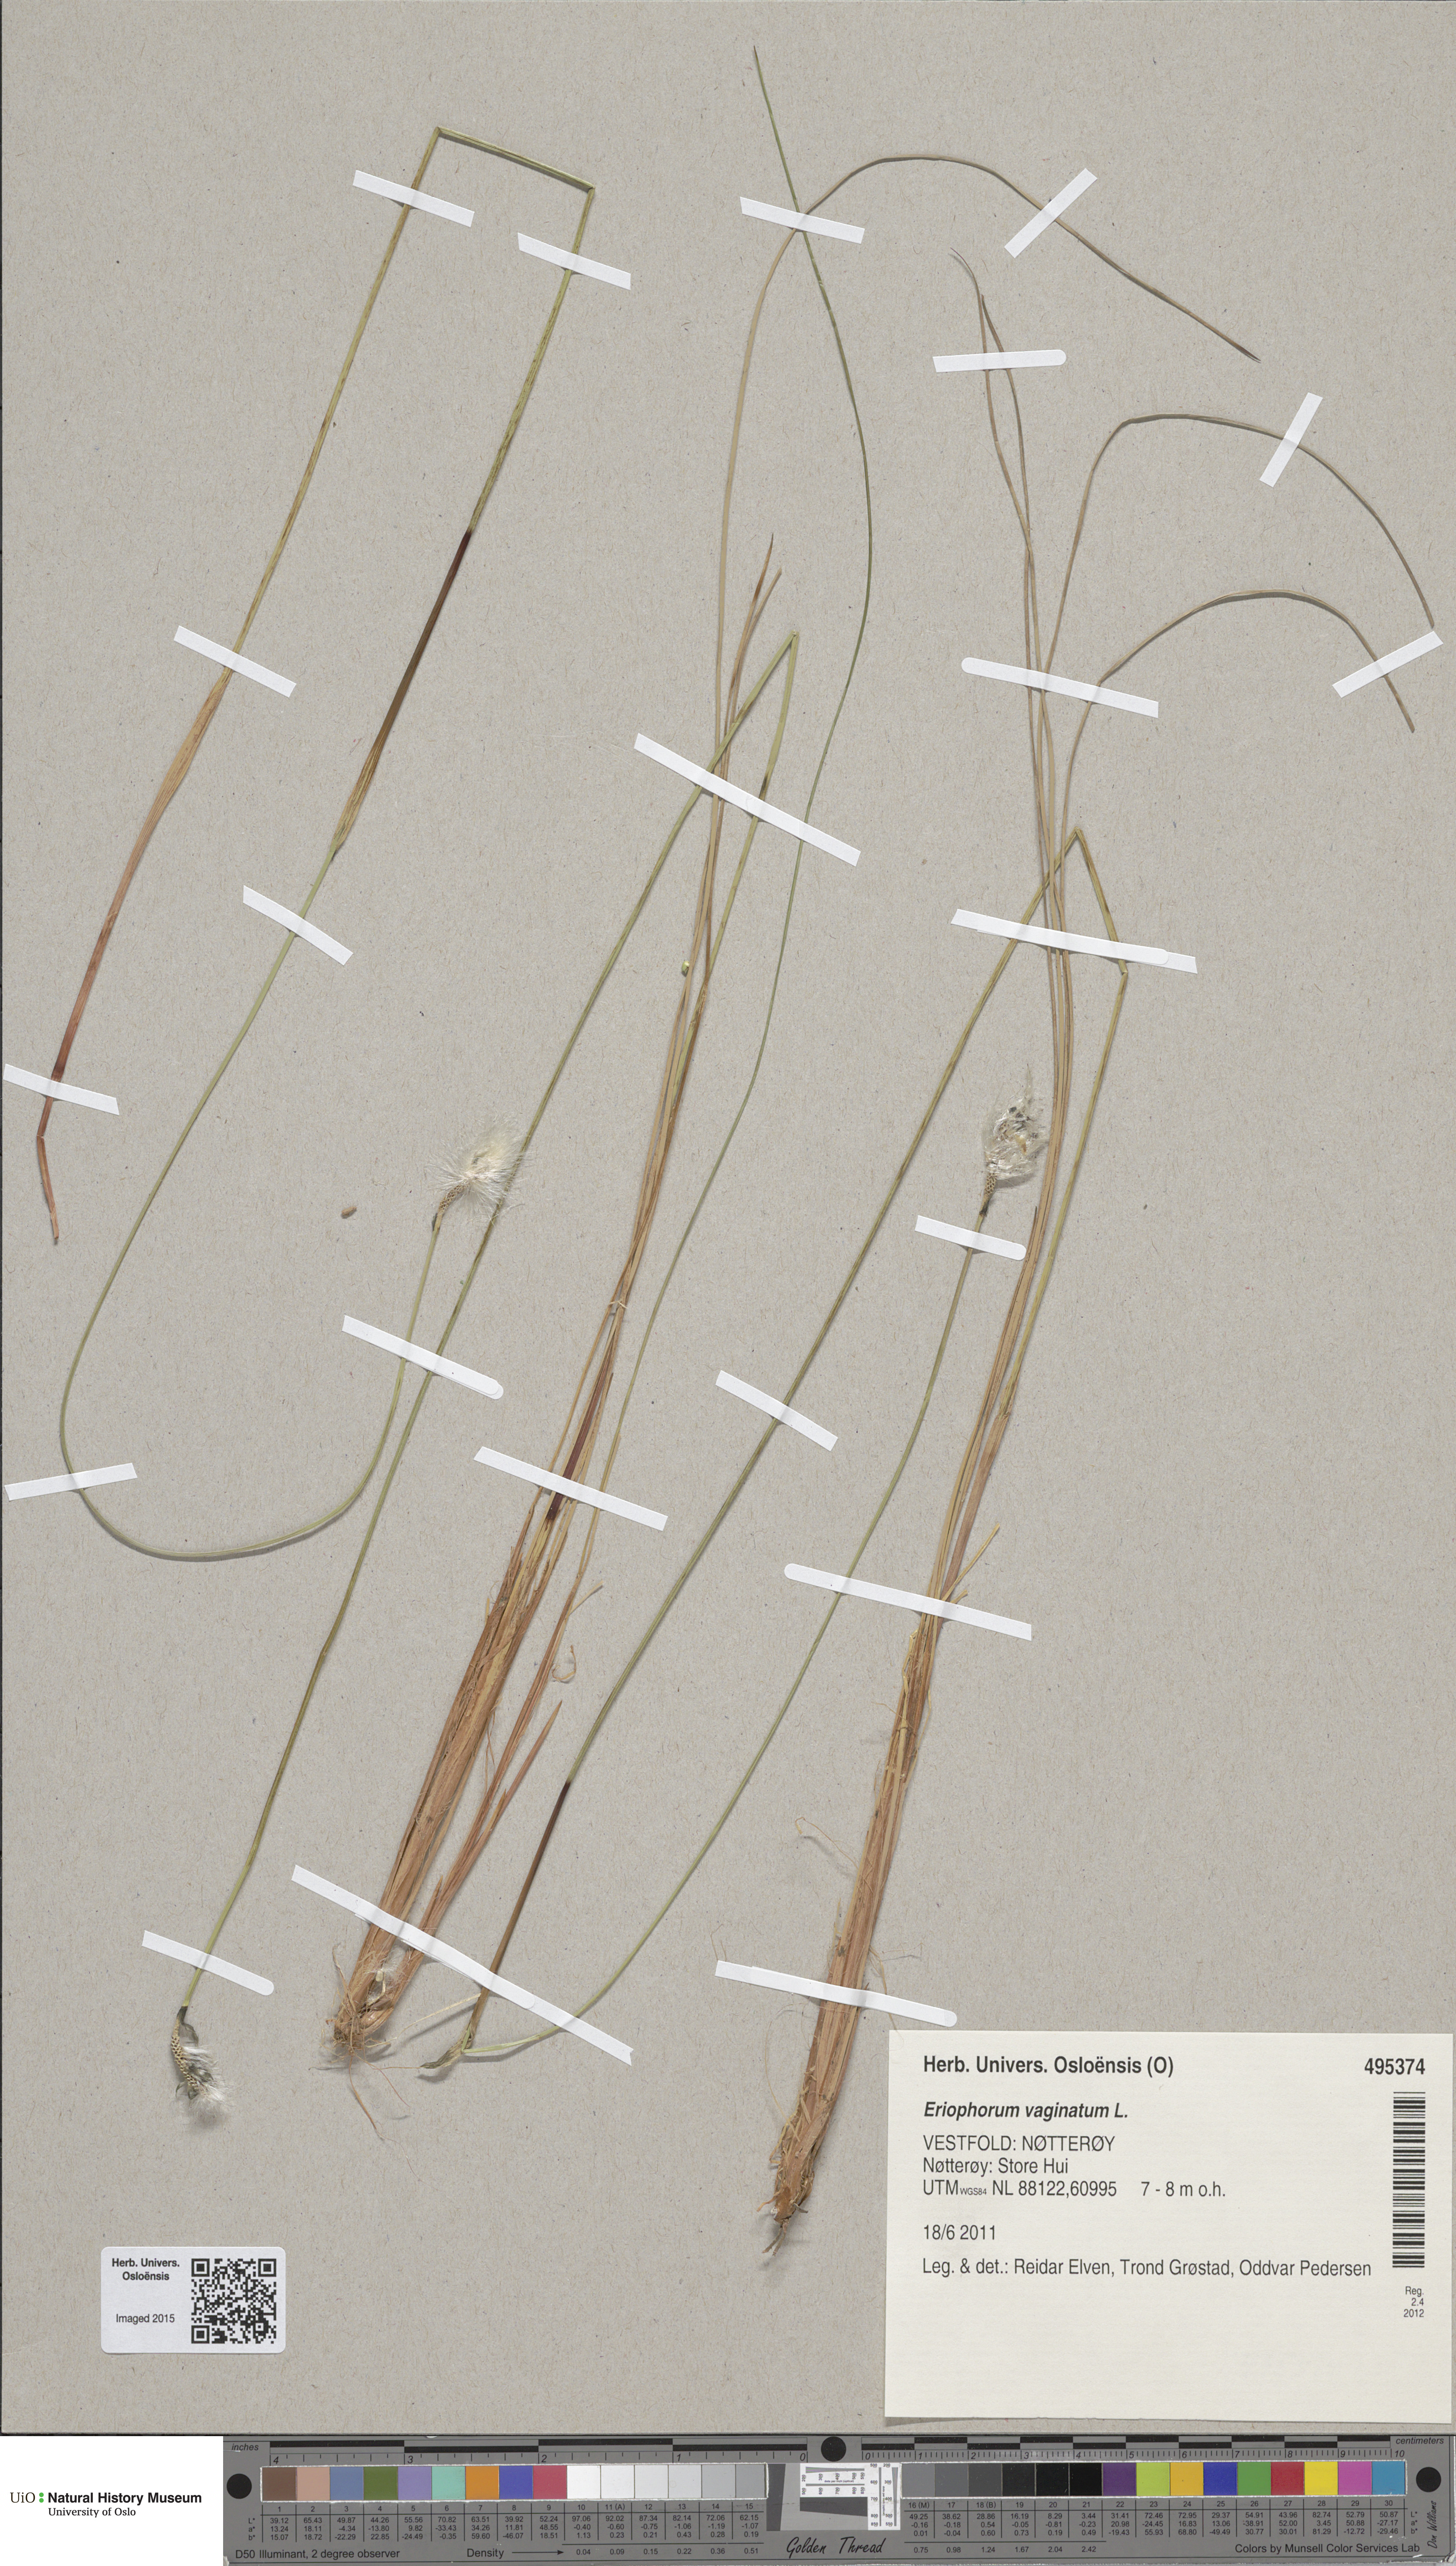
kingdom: Plantae
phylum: Tracheophyta
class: Liliopsida
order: Poales
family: Cyperaceae
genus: Eriophorum
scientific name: Eriophorum vaginatum
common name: Hare's-tail cottongrass
